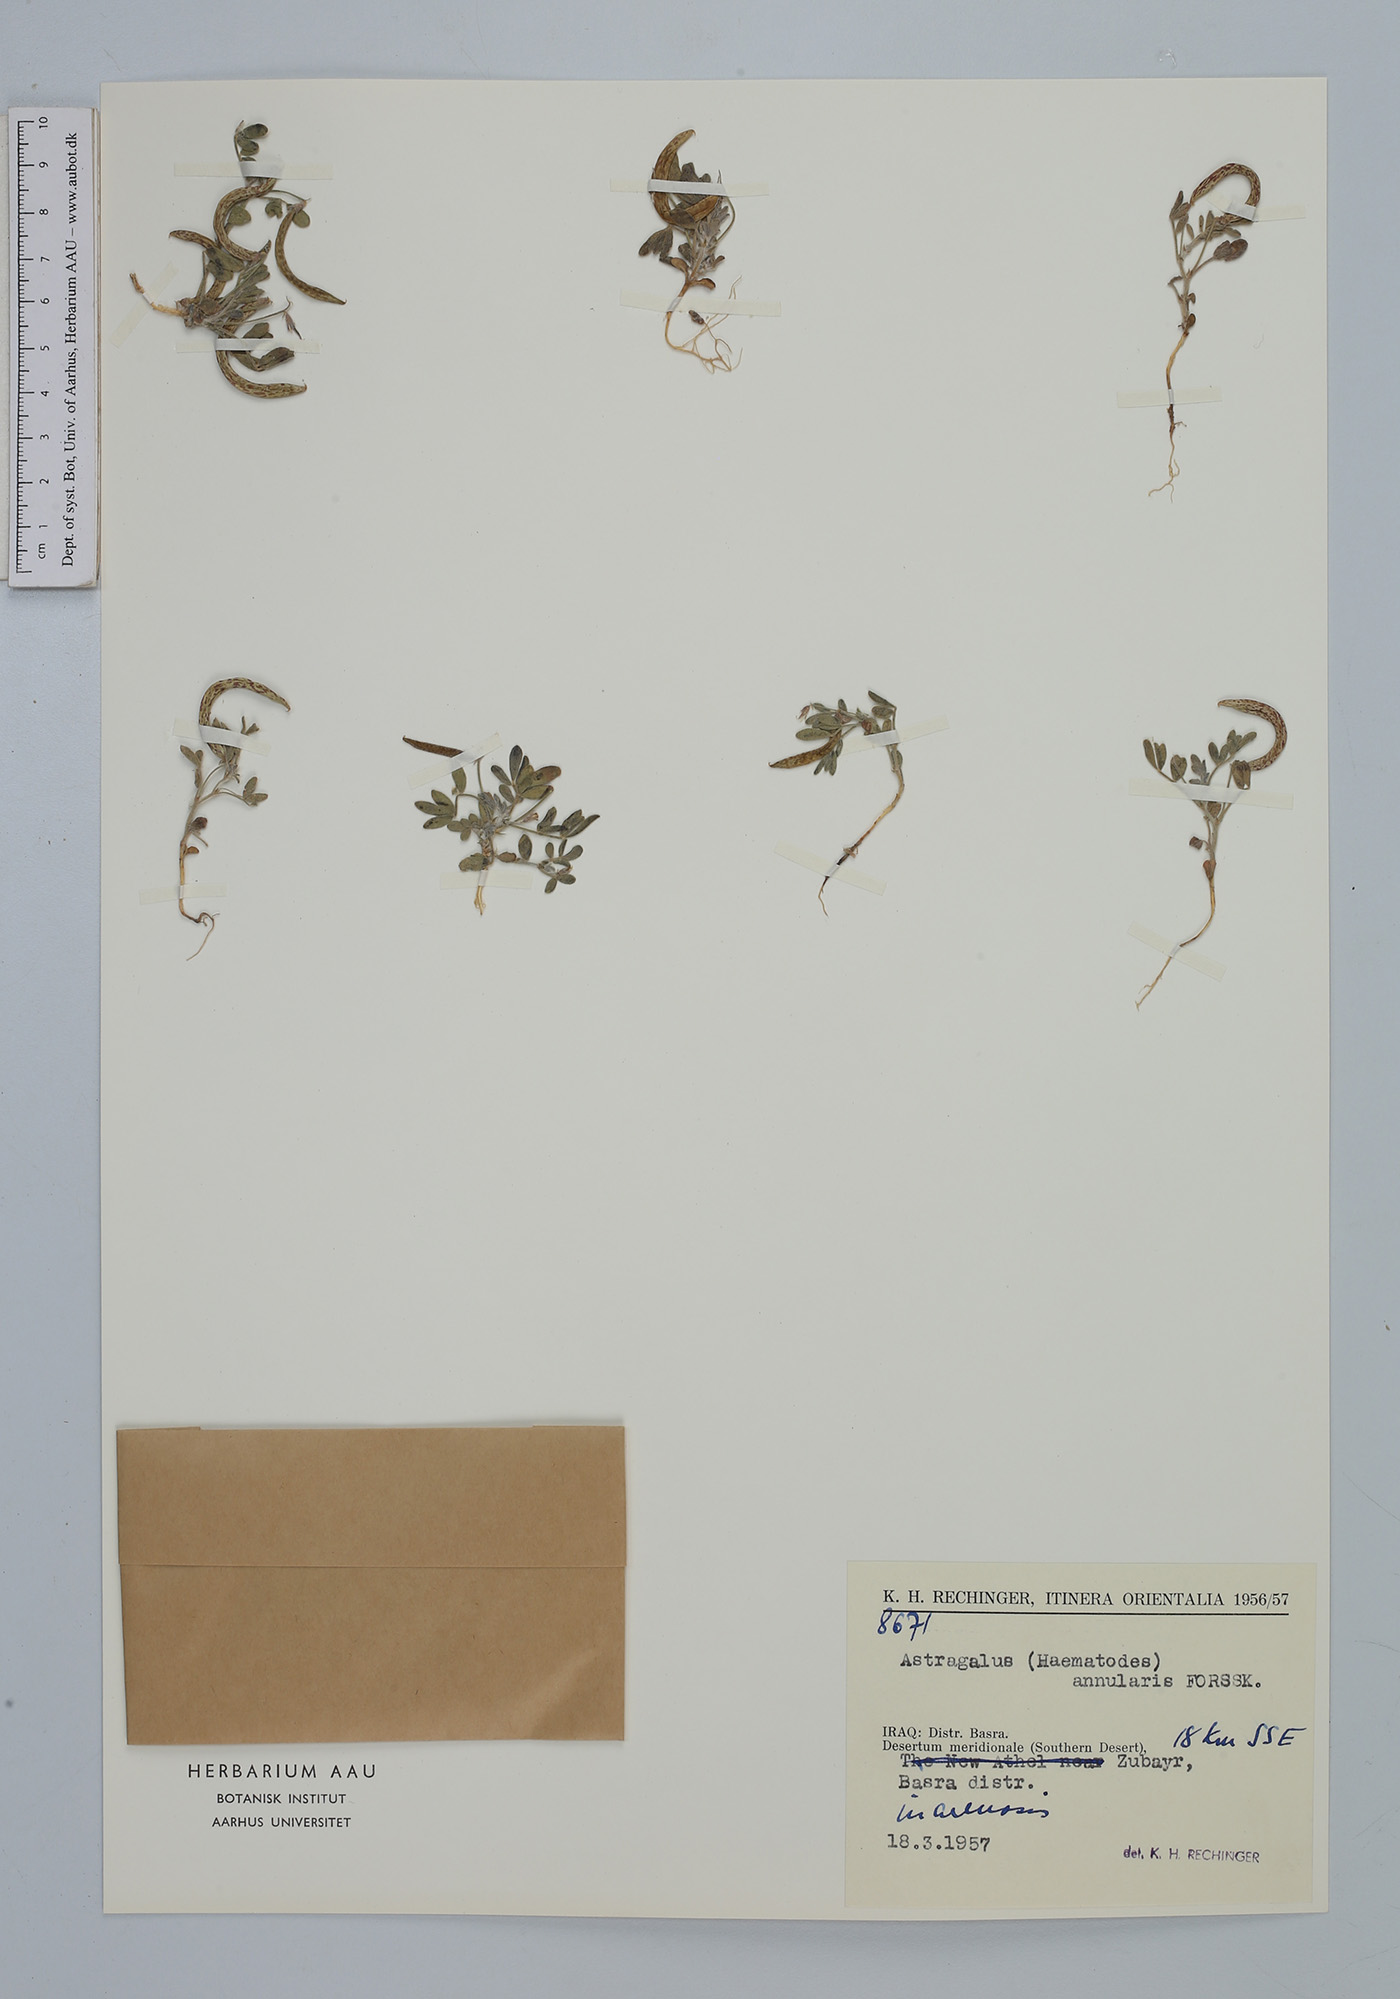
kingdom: Plantae
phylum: Tracheophyta
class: Magnoliopsida
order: Fabales
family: Fabaceae
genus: Astragalus
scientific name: Astragalus annularis
